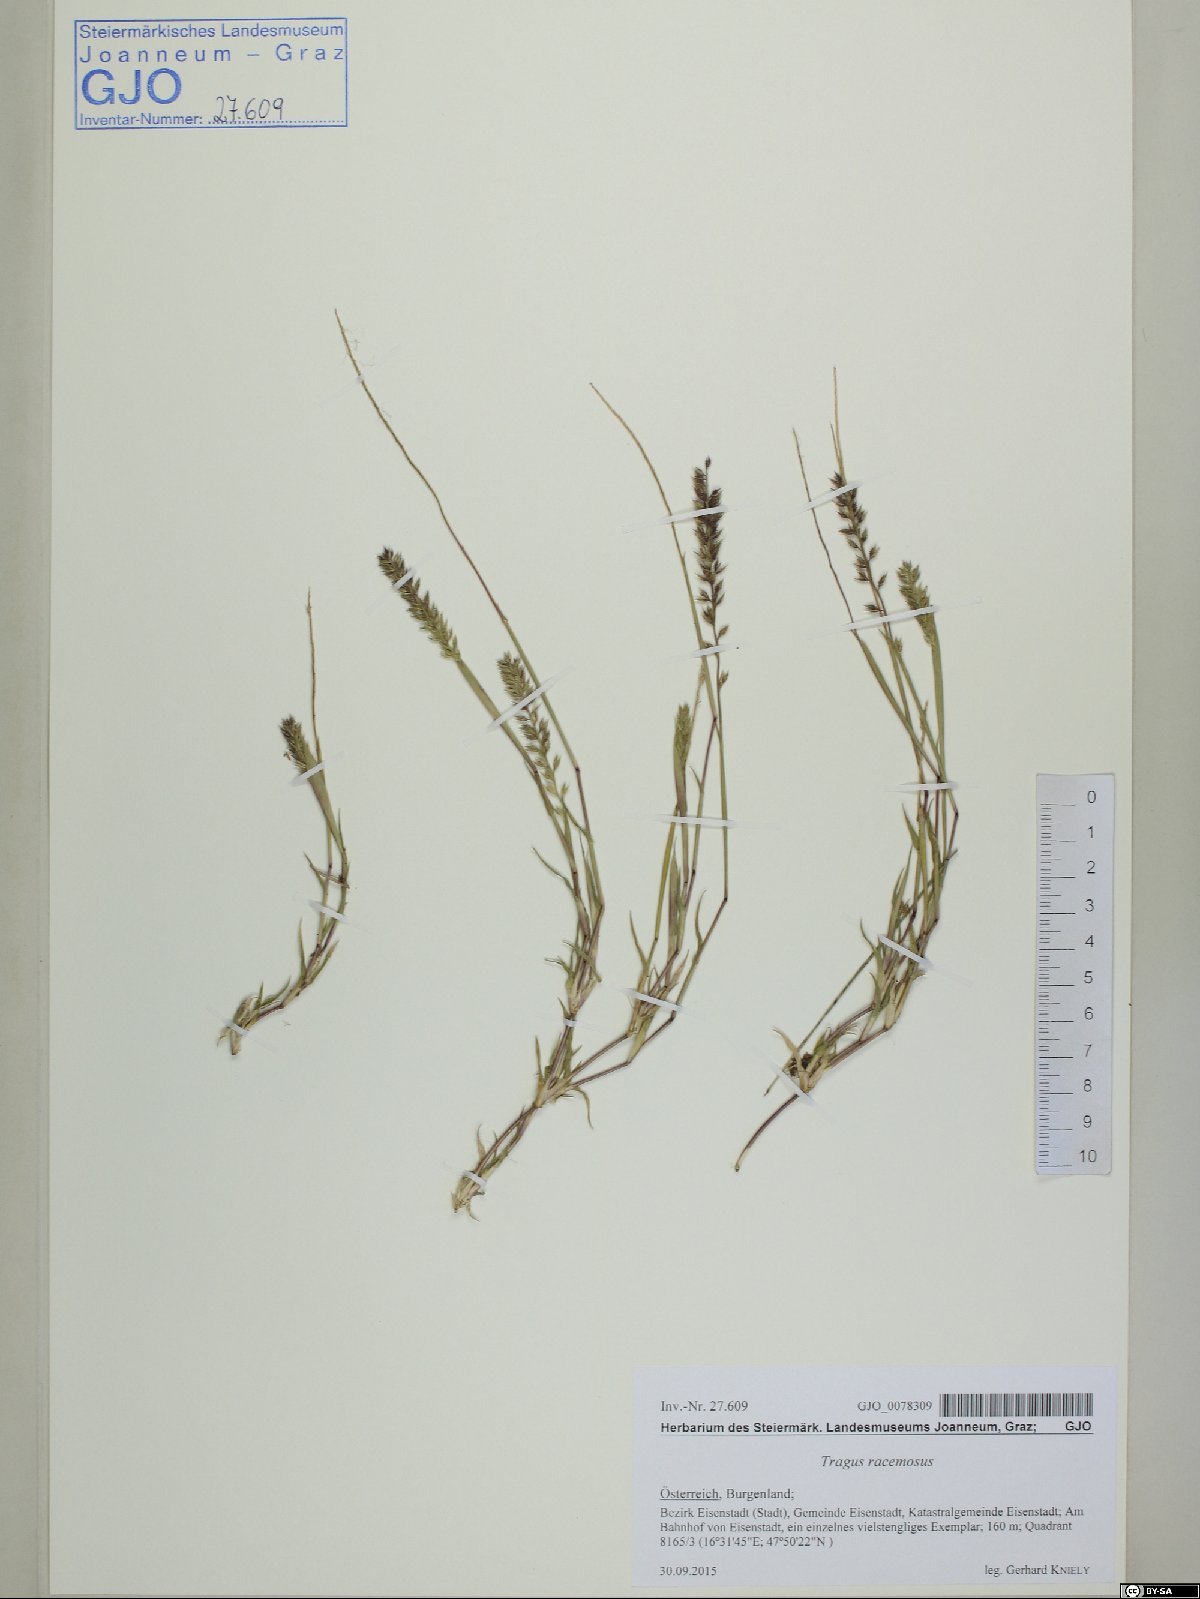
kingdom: Plantae
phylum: Tracheophyta
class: Liliopsida
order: Poales
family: Poaceae
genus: Tragus
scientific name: Tragus racemosus
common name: European bur-grass
